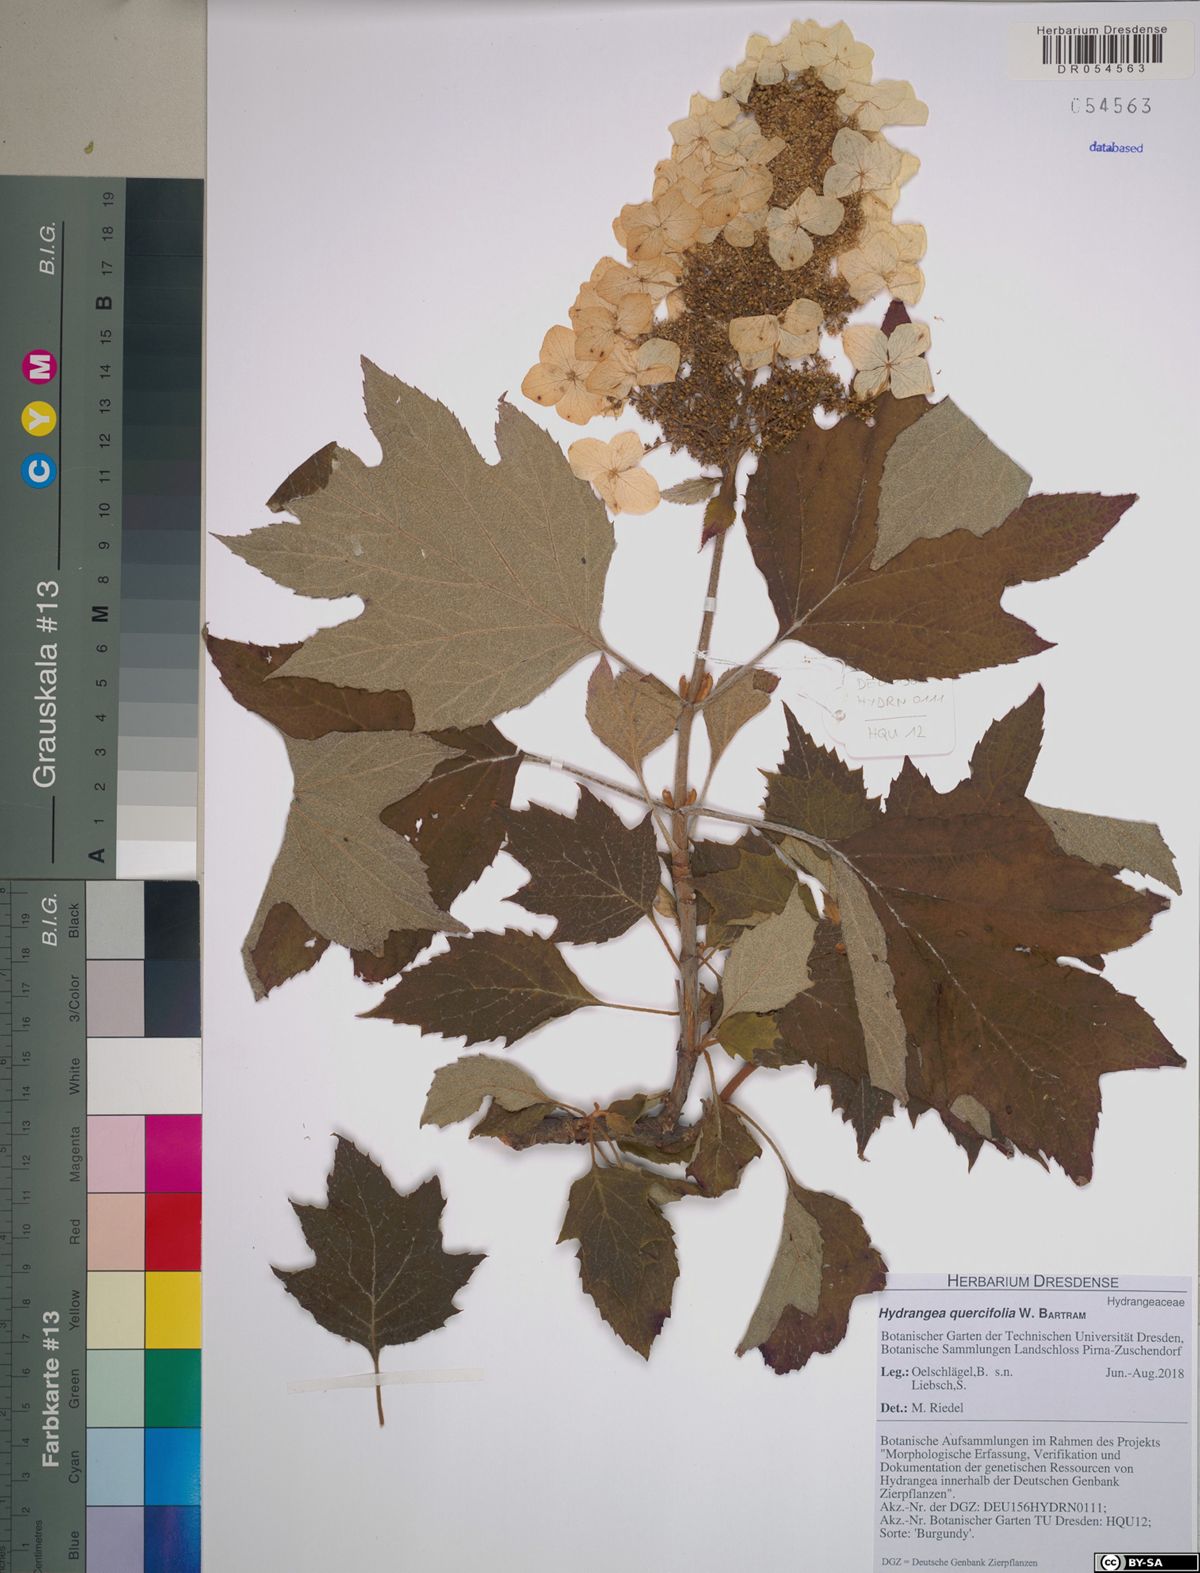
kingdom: Plantae
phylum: Tracheophyta
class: Magnoliopsida
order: Cornales
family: Hydrangeaceae
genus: Hydrangea
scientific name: Hydrangea quercifolia
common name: Oak-leaf hydrangea
